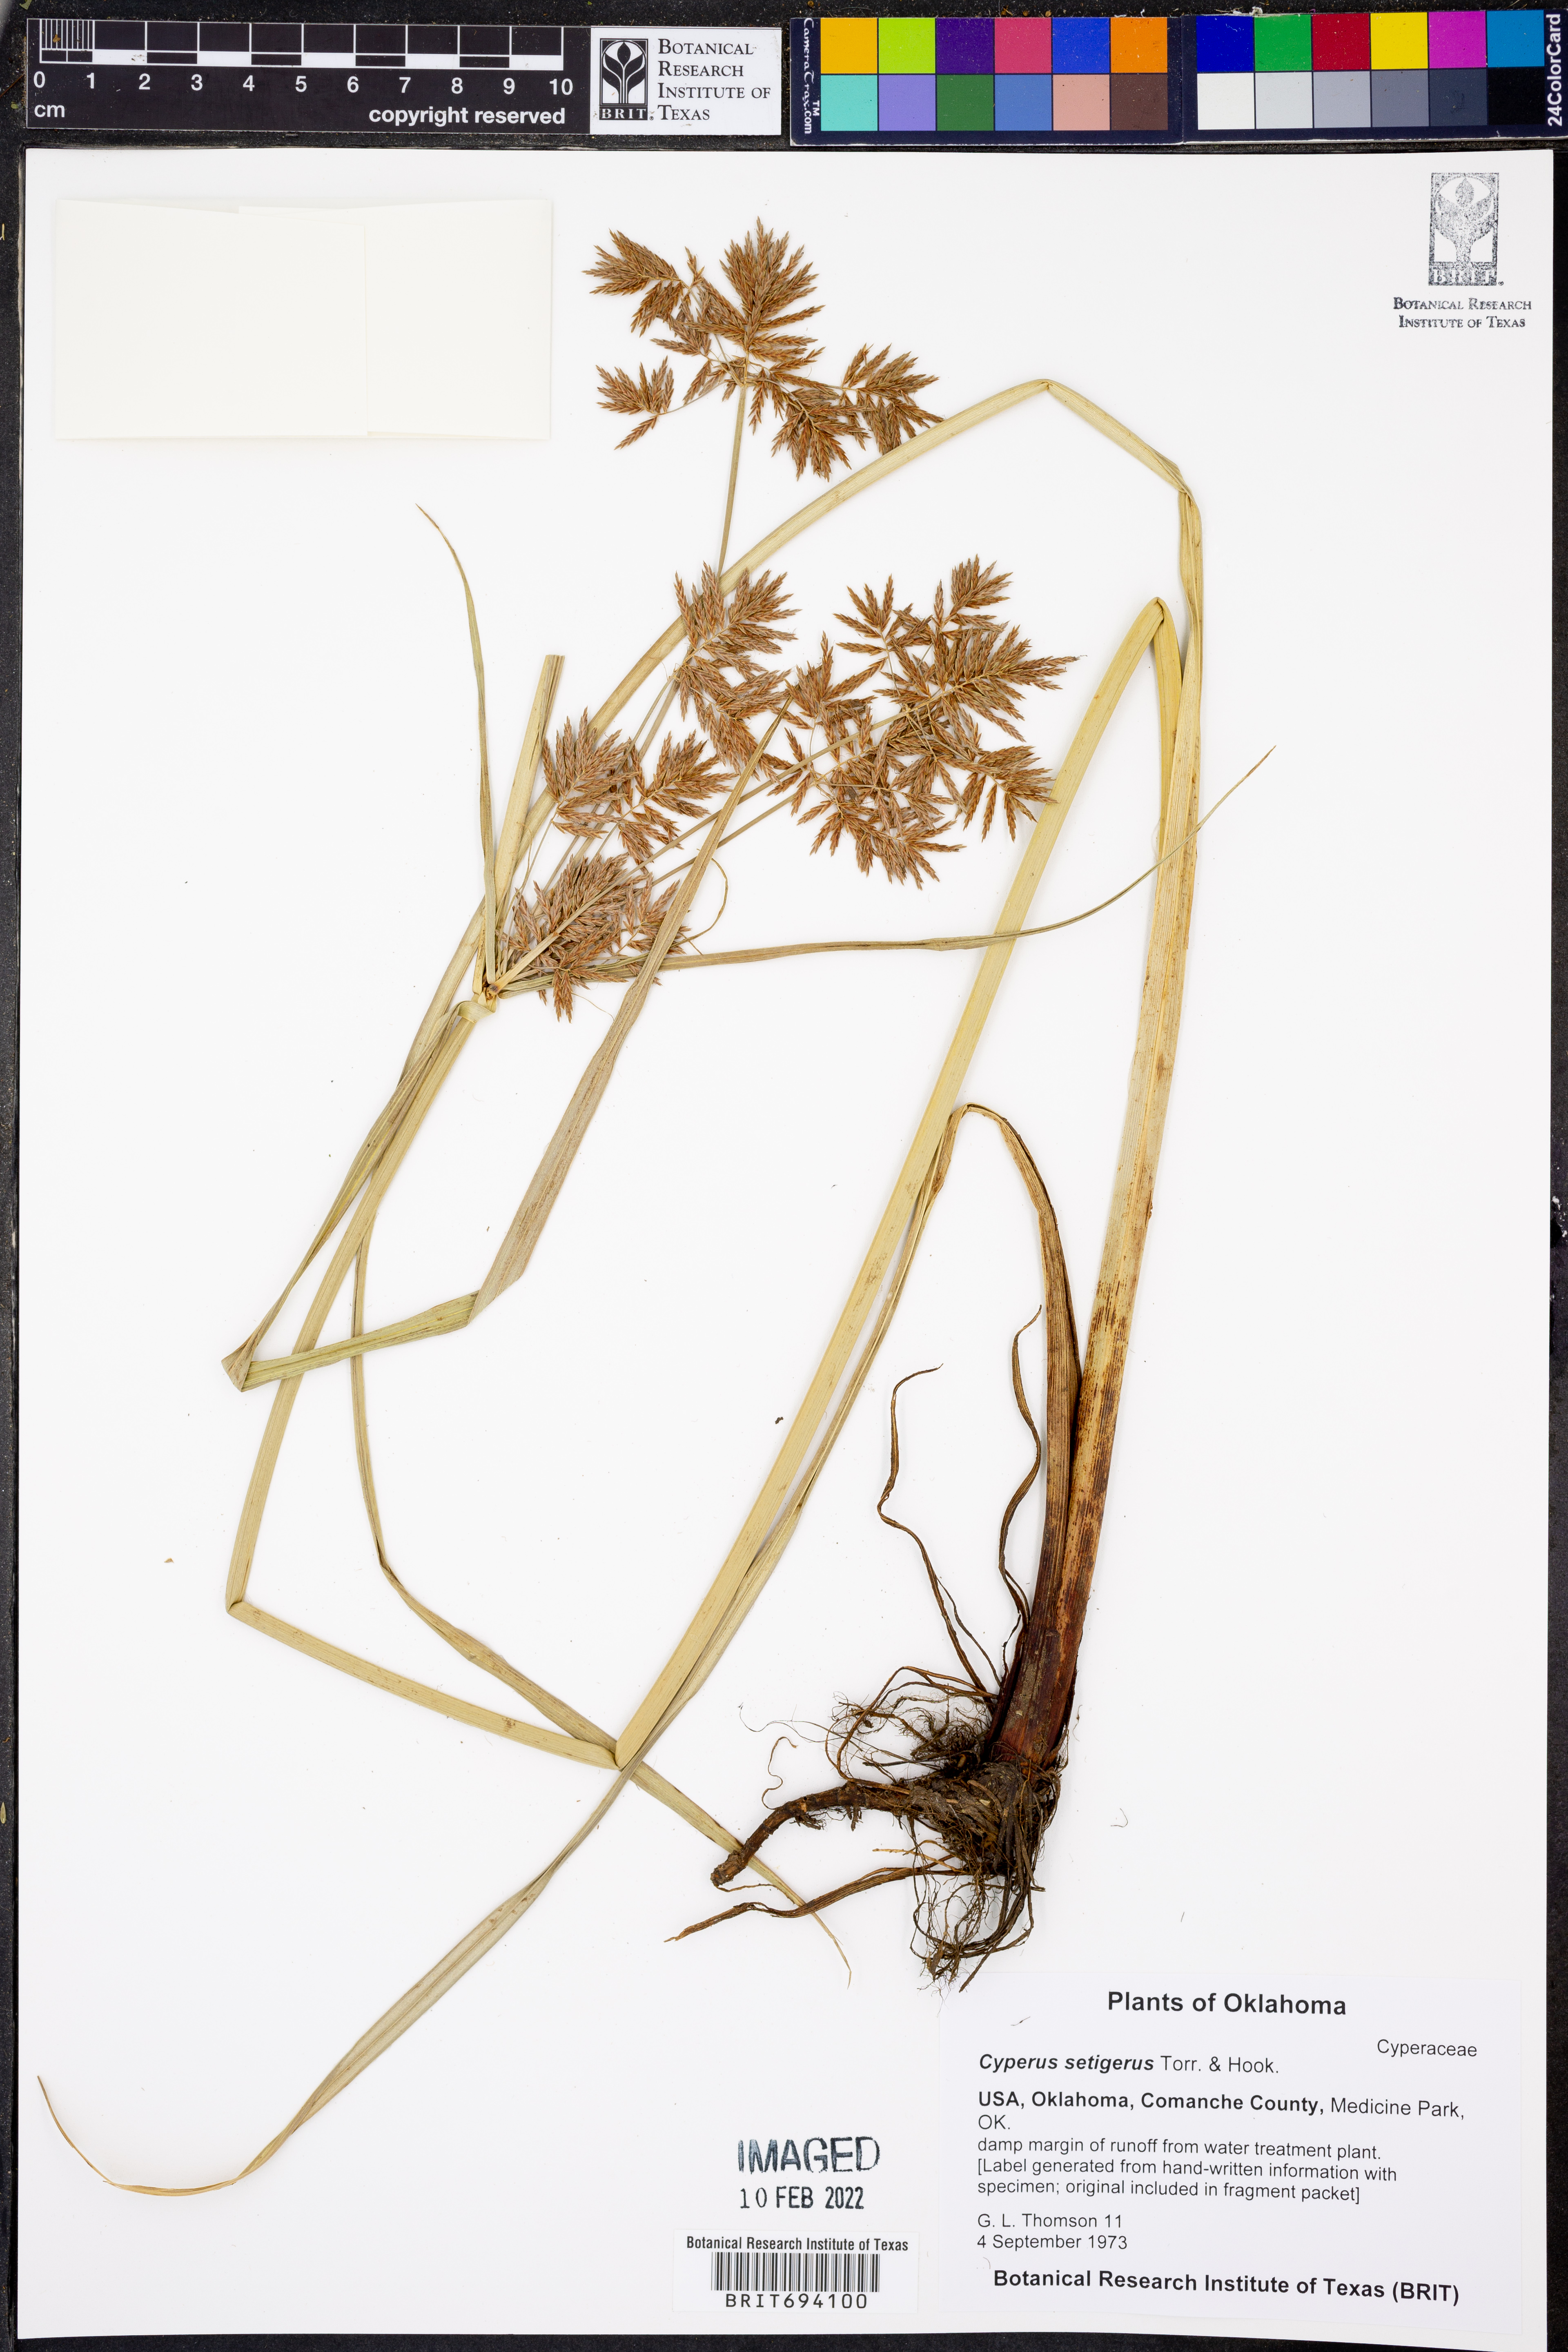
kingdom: Plantae
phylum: Tracheophyta
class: Liliopsida
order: Poales
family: Cyperaceae
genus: Cyperus
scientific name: Cyperus setigerus
